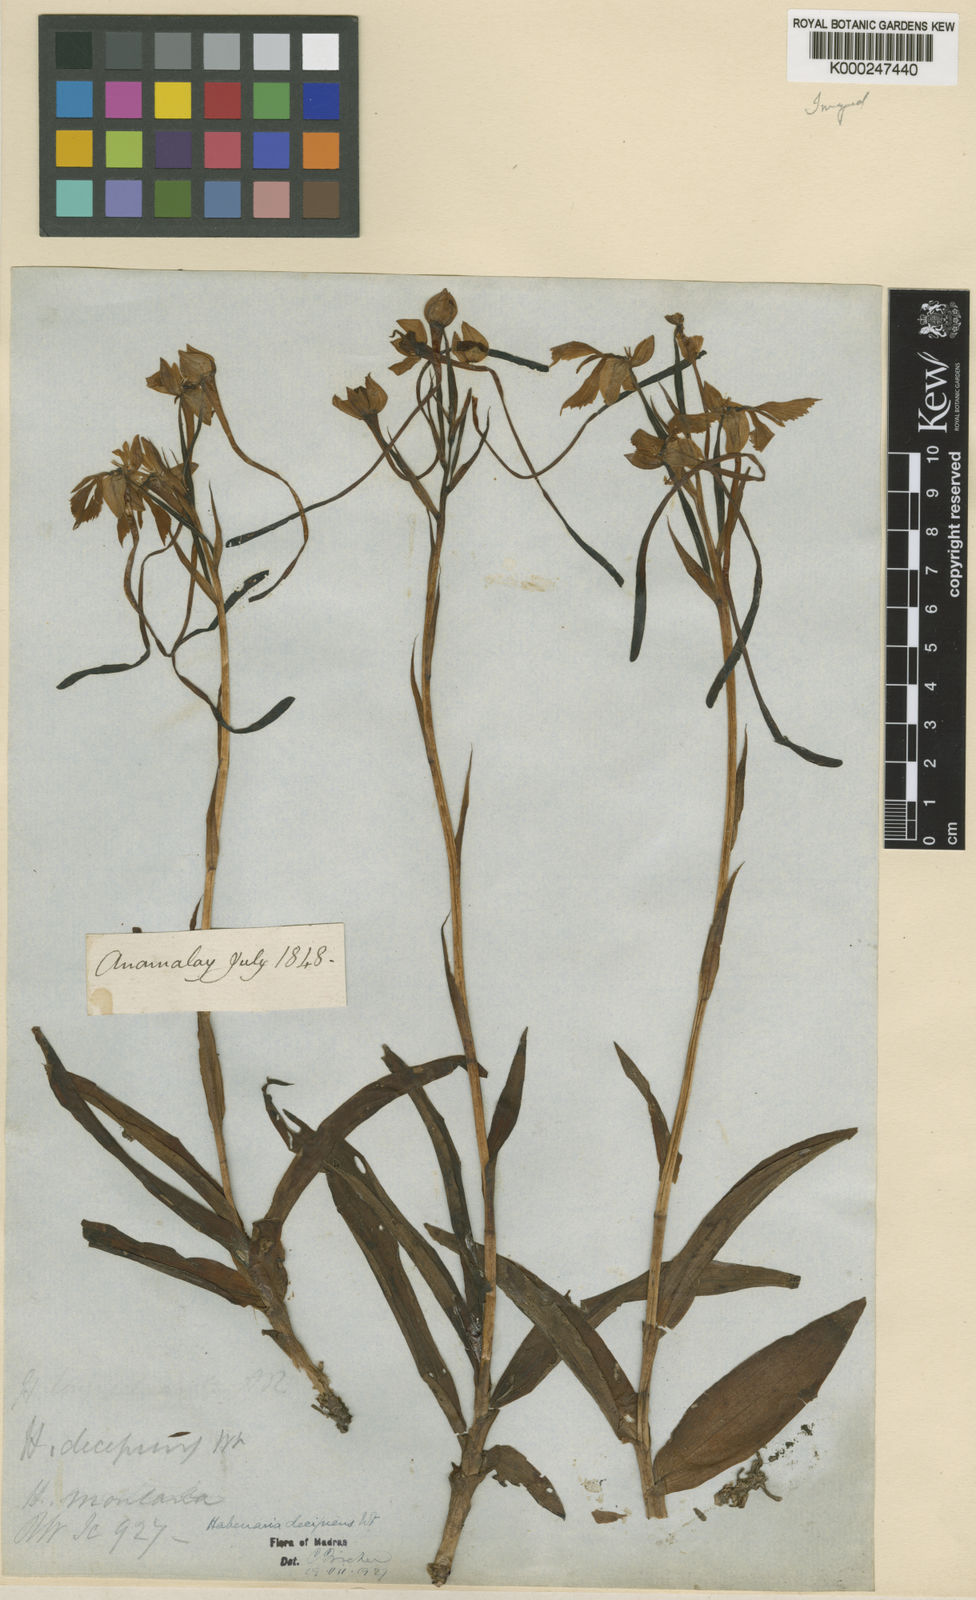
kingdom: Plantae
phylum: Tracheophyta
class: Liliopsida
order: Asparagales
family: Orchidaceae
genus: Habenaria
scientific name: Habenaria longicornu
